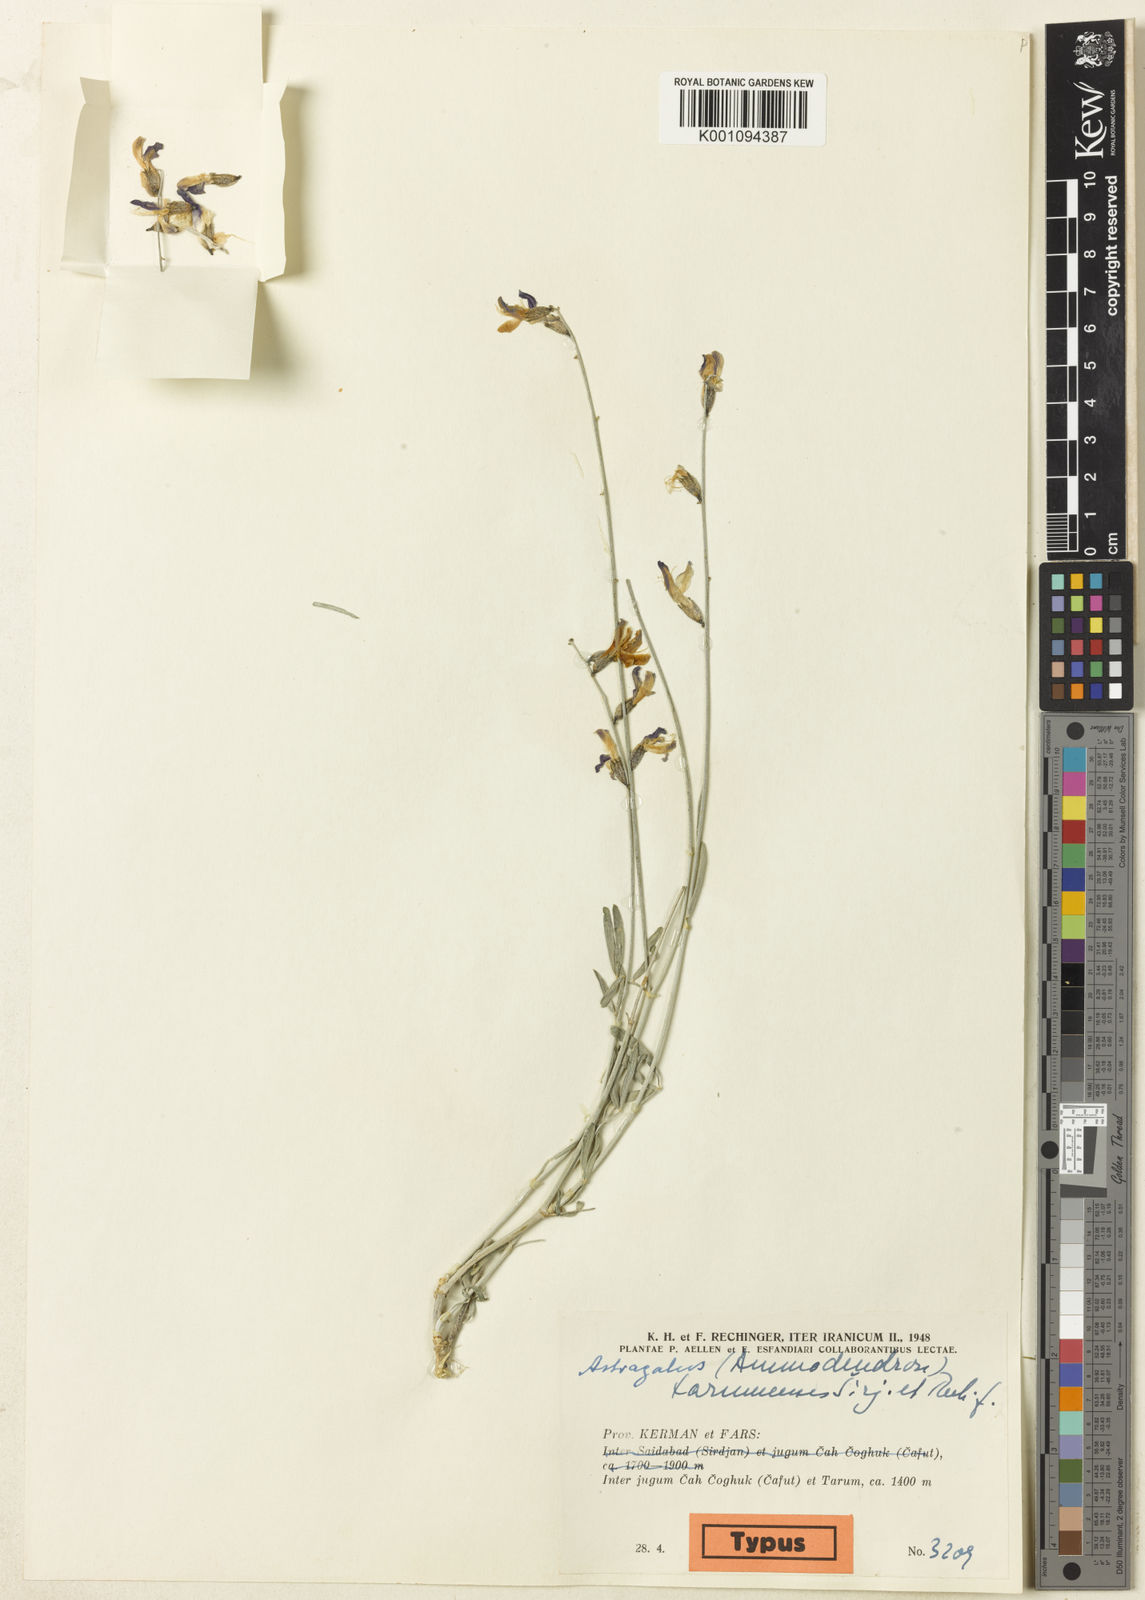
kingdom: Plantae
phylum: Tracheophyta
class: Magnoliopsida
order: Fabales
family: Fabaceae
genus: Astragalus
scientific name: Astragalus
